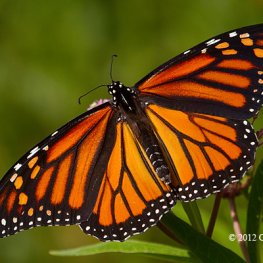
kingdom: Animalia
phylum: Arthropoda
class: Insecta
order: Lepidoptera
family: Nymphalidae
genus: Danaus
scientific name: Danaus plexippus
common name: Monarch
